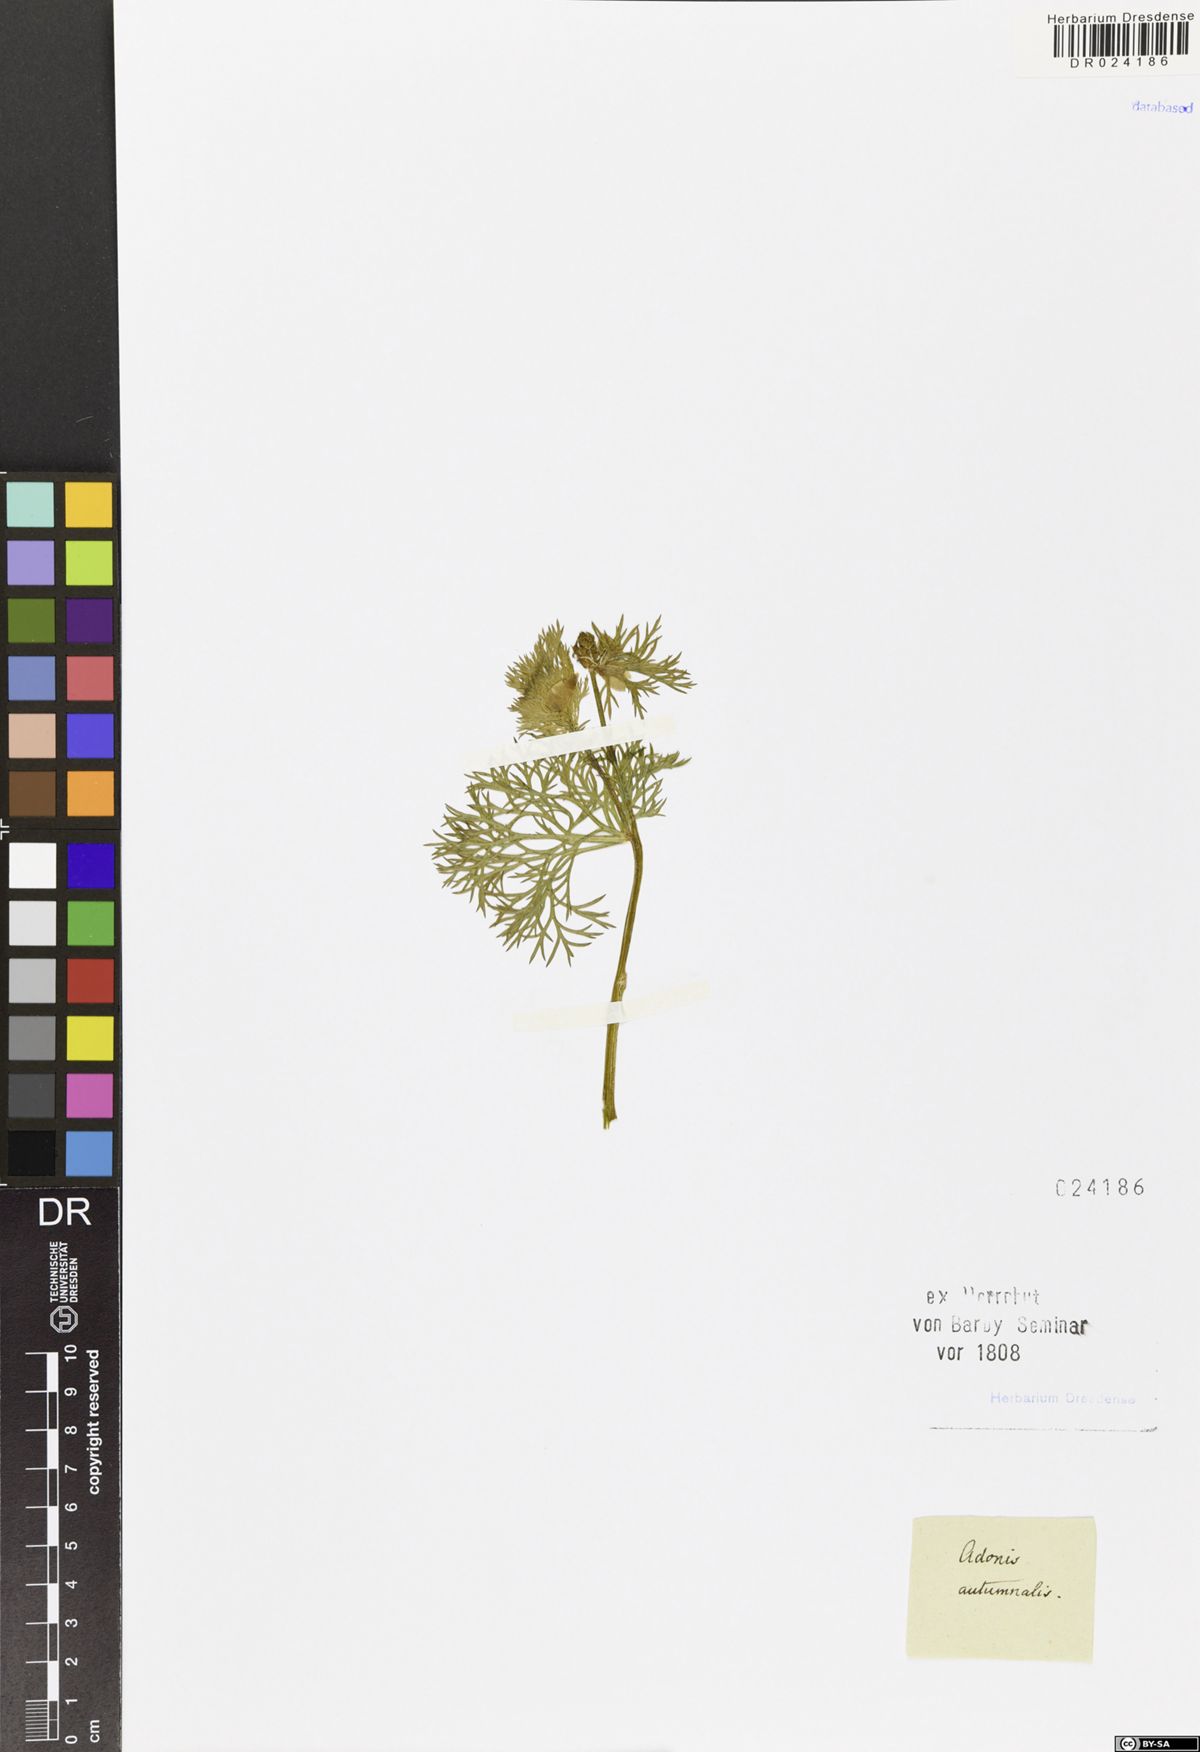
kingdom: Plantae
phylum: Tracheophyta
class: Magnoliopsida
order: Ranunculales
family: Ranunculaceae
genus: Adonis
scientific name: Adonis annua
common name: Pheasant's-eye
